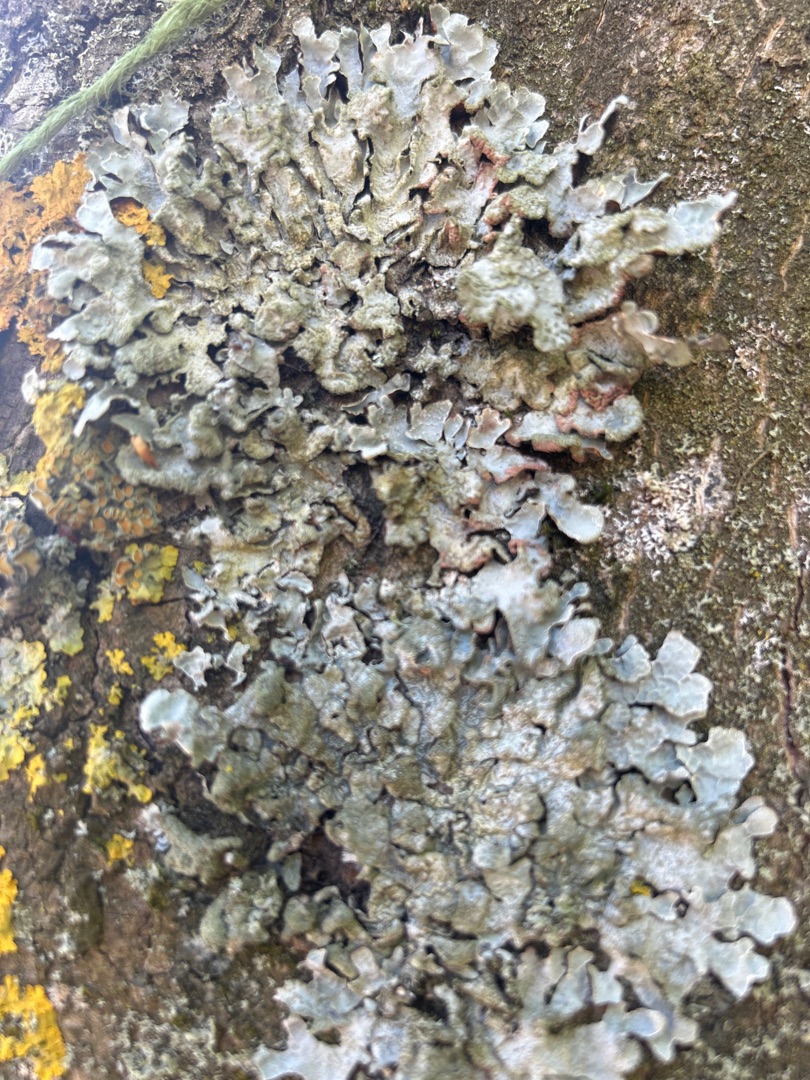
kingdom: Fungi
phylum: Ascomycota
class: Lecanoromycetes
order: Lecanorales
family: Parmeliaceae
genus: Parmelia
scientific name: Parmelia sulcata
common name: Rynket skållav
